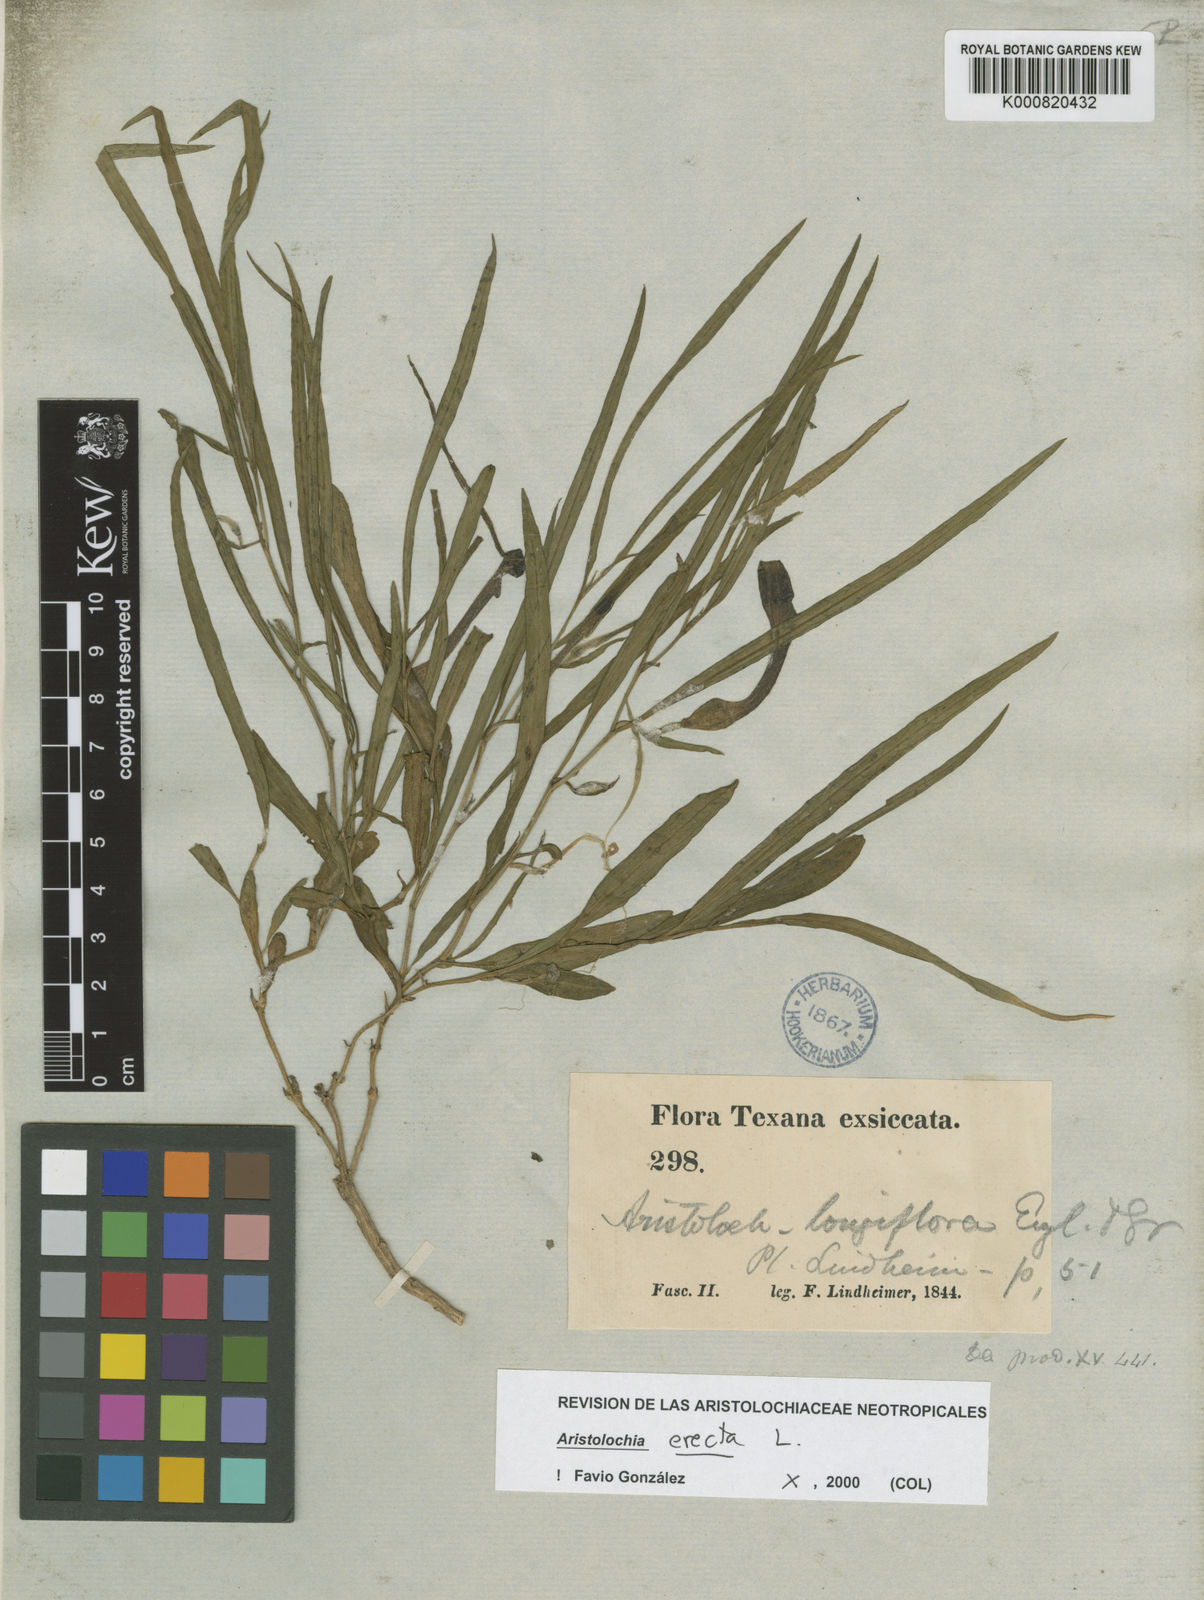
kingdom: Plantae
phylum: Tracheophyta
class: Magnoliopsida
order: Piperales
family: Aristolochiaceae
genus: Aristolochia
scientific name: Aristolochia erecta
